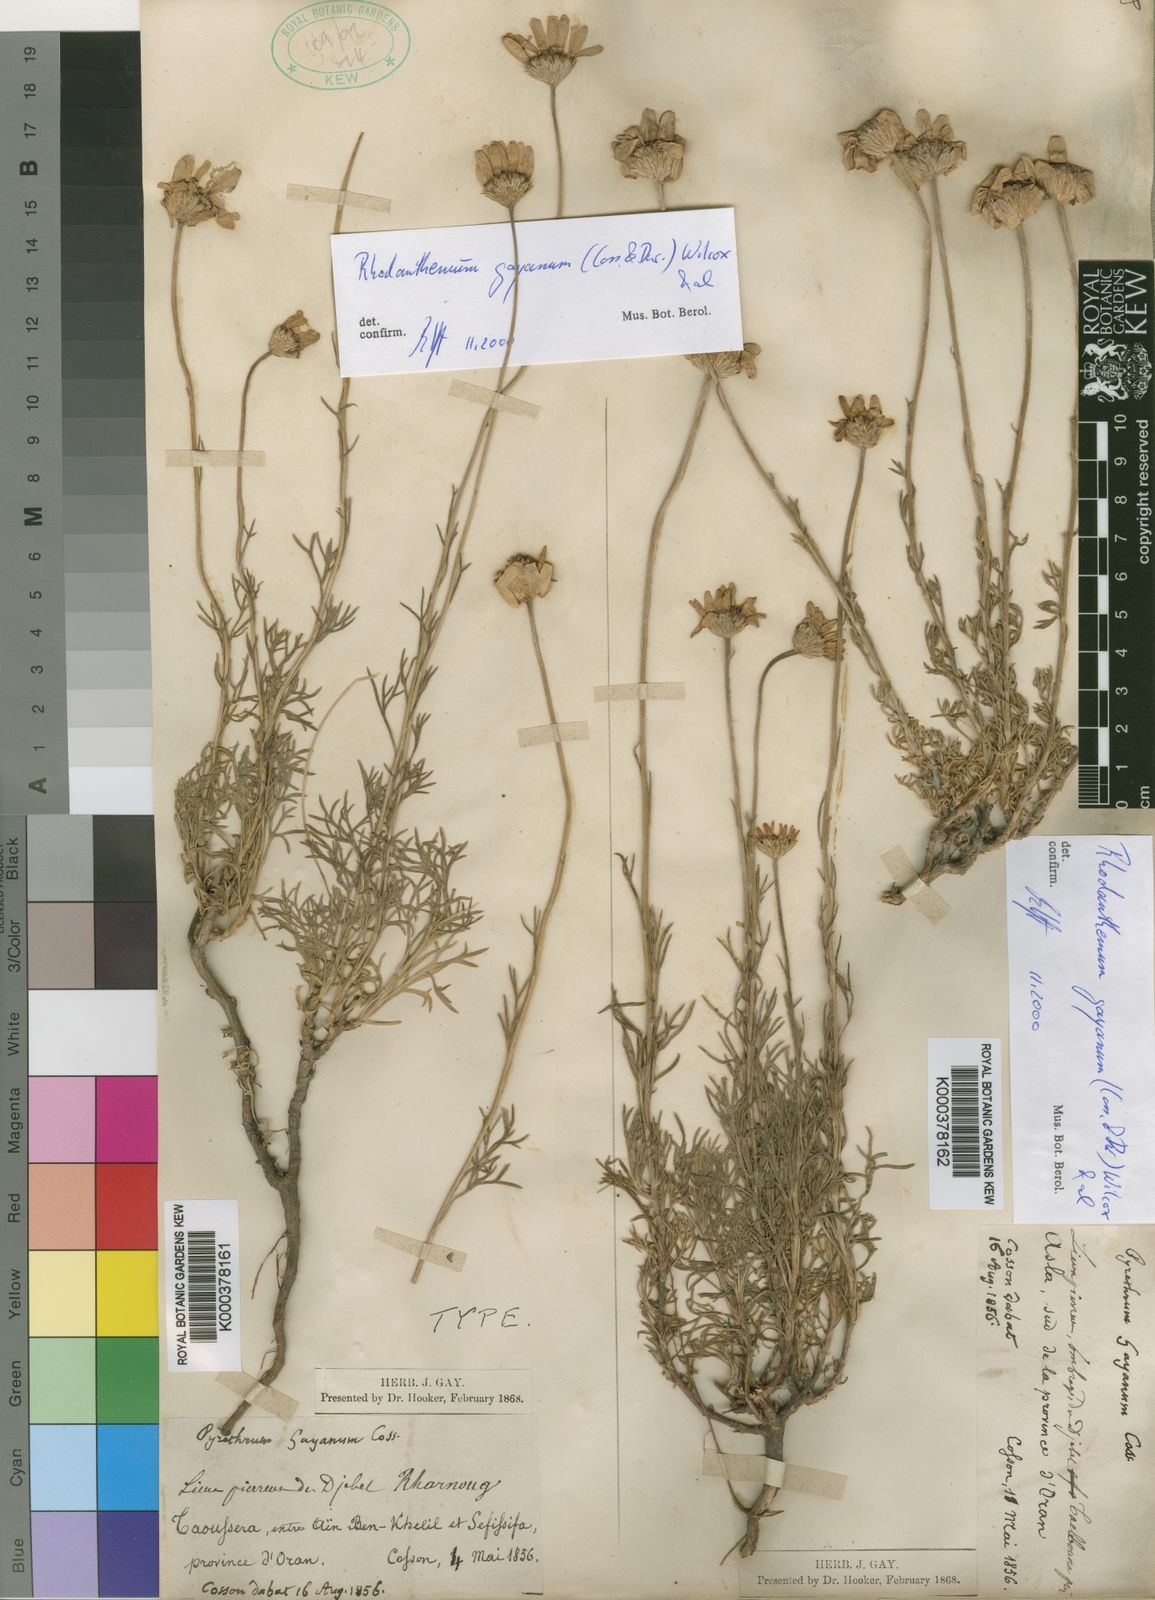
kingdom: Plantae
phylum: Tracheophyta
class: Magnoliopsida
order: Asterales
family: Asteraceae
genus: Rhodanthemum
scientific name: Rhodanthemum
